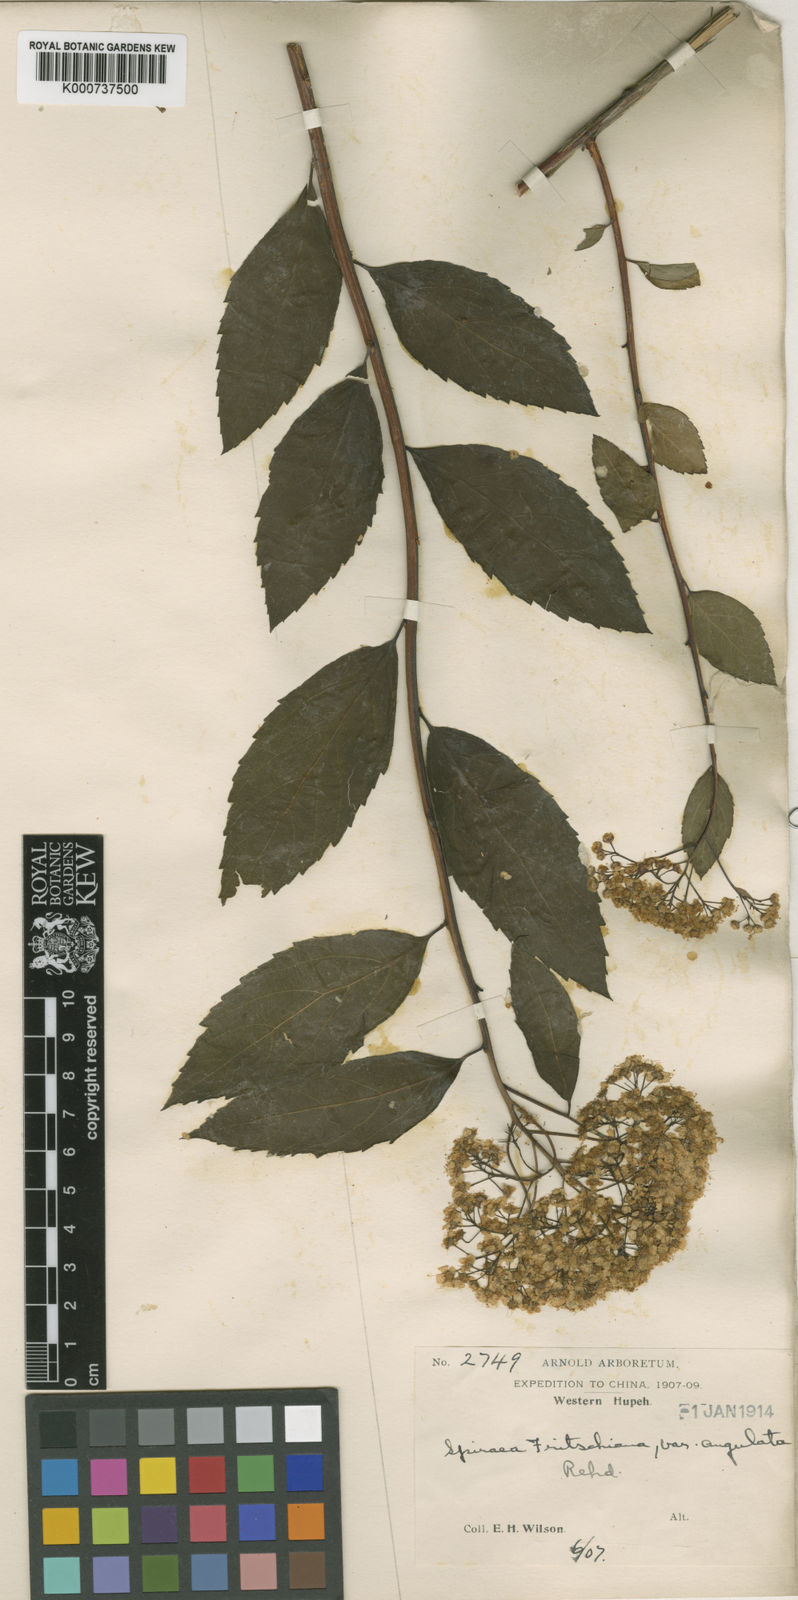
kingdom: Plantae
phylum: Tracheophyta
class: Magnoliopsida
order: Rosales
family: Rosaceae
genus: Spiraea
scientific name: Spiraea fritschiana
